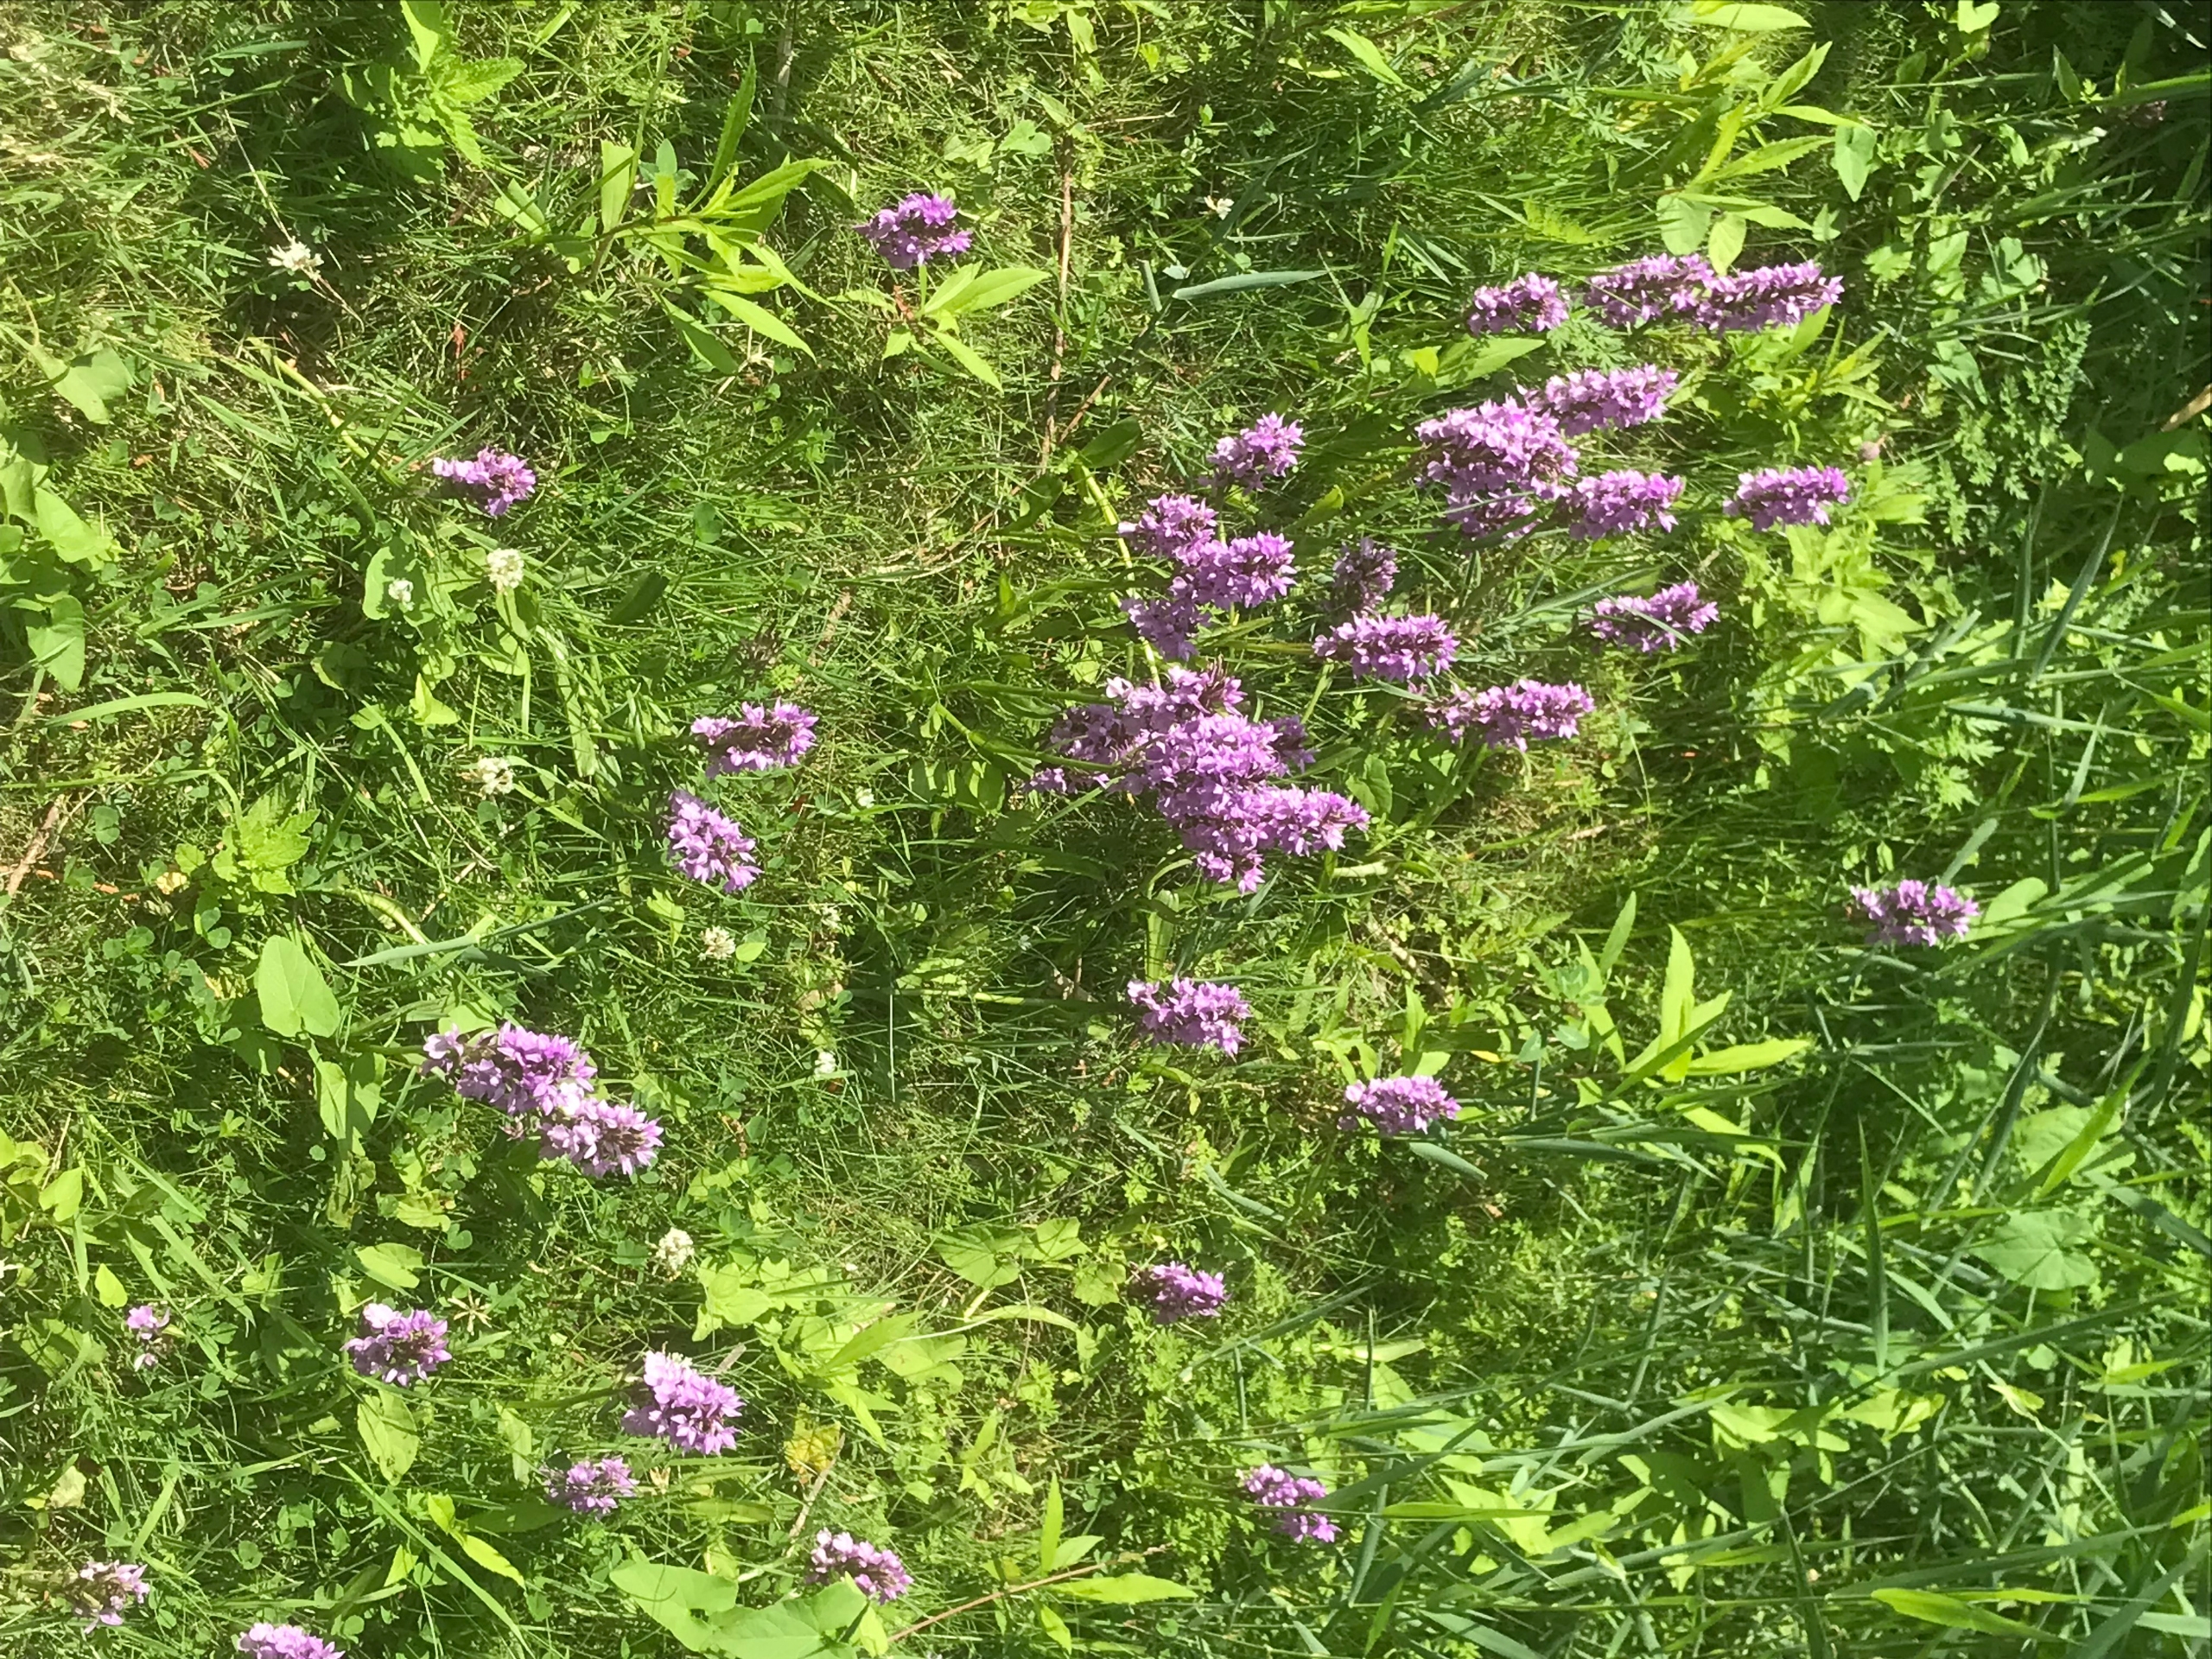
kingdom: Plantae
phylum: Tracheophyta
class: Liliopsida
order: Asparagales
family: Orchidaceae
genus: Dactylorhiza
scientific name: Dactylorhiza majalis
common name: Priklæbet gøgeurt
